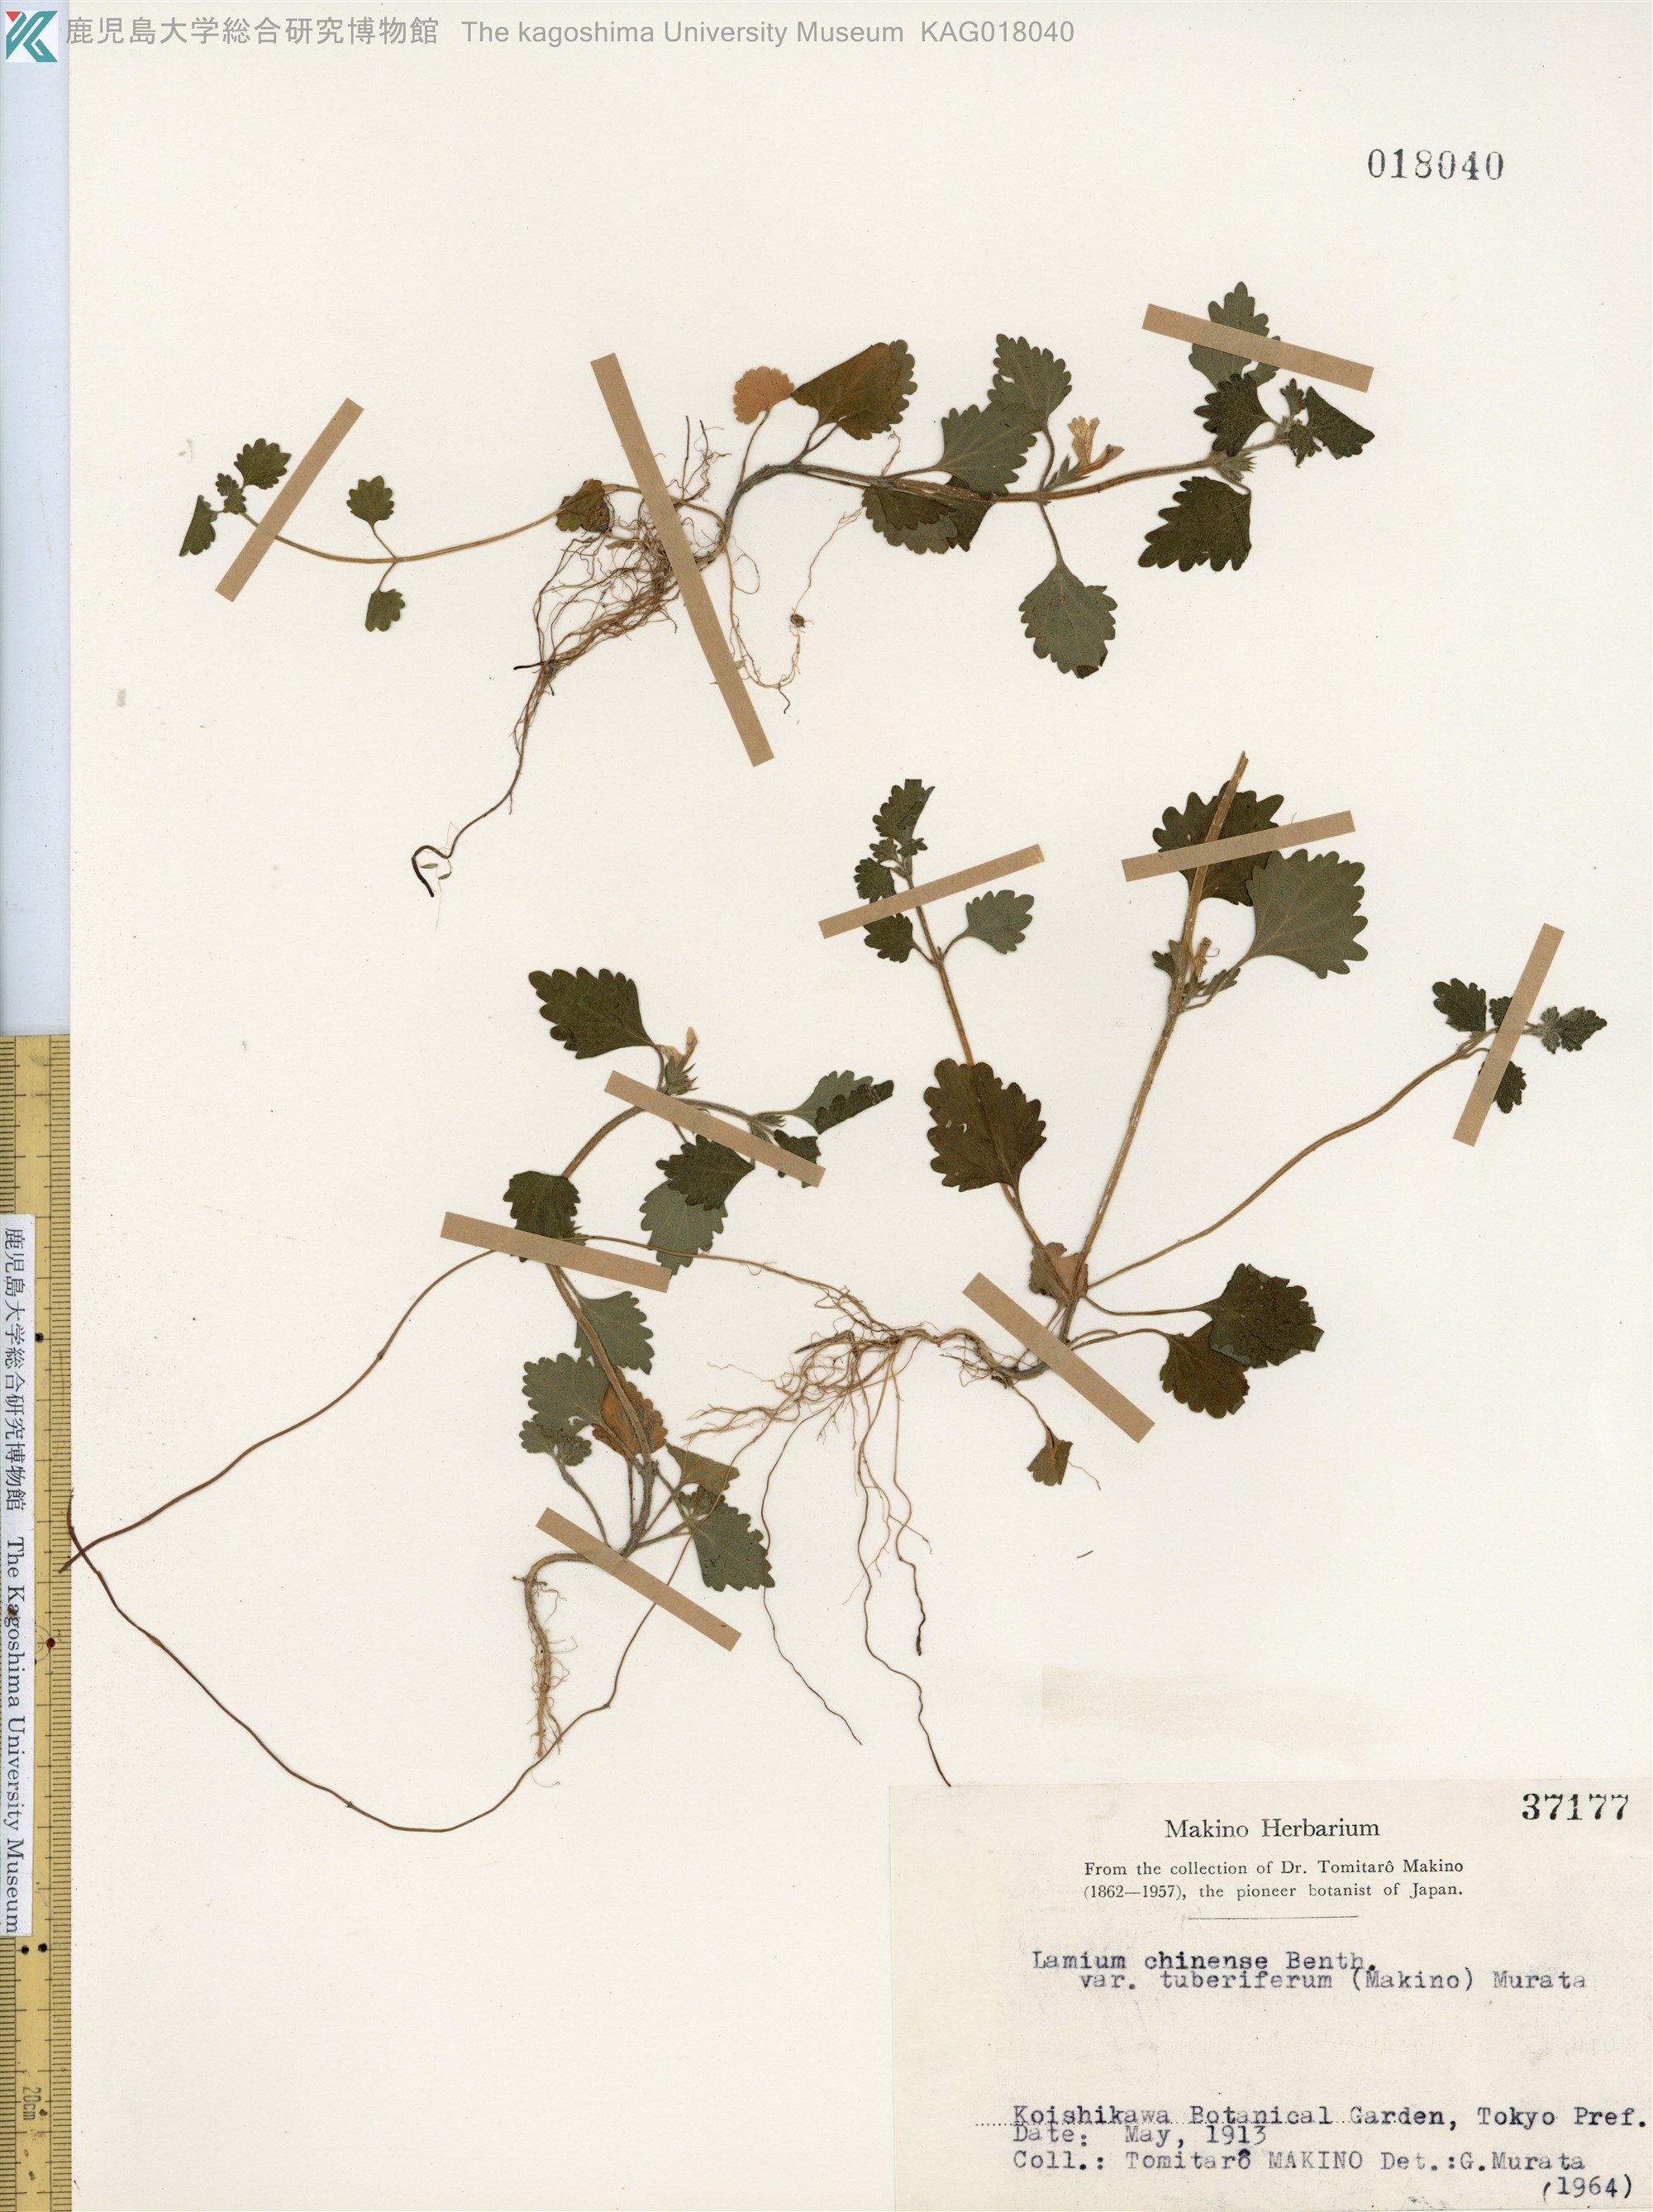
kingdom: Plantae
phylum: Tracheophyta
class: Magnoliopsida
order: Lamiales
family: Lamiaceae
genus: Matsumurella
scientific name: Matsumurella tuberifera
